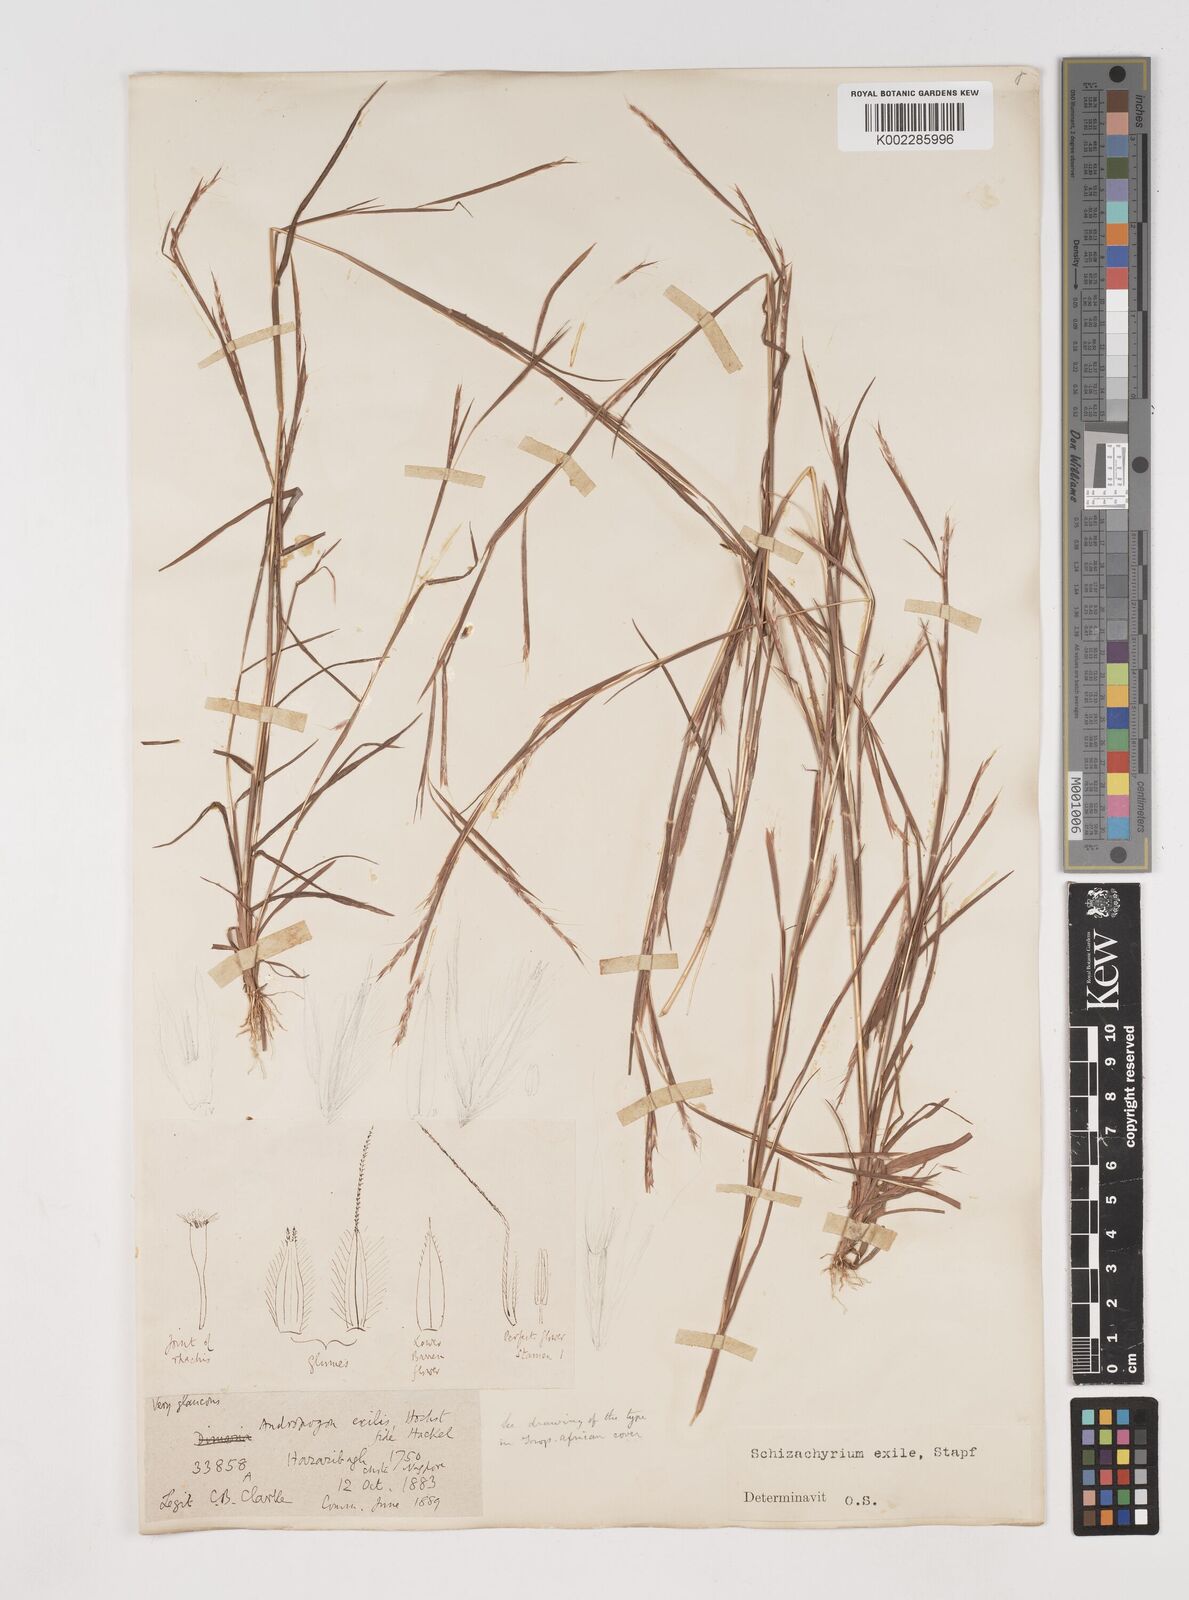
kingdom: Plantae
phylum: Tracheophyta
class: Liliopsida
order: Poales
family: Poaceae
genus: Schizachyrium
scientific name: Schizachyrium exile
